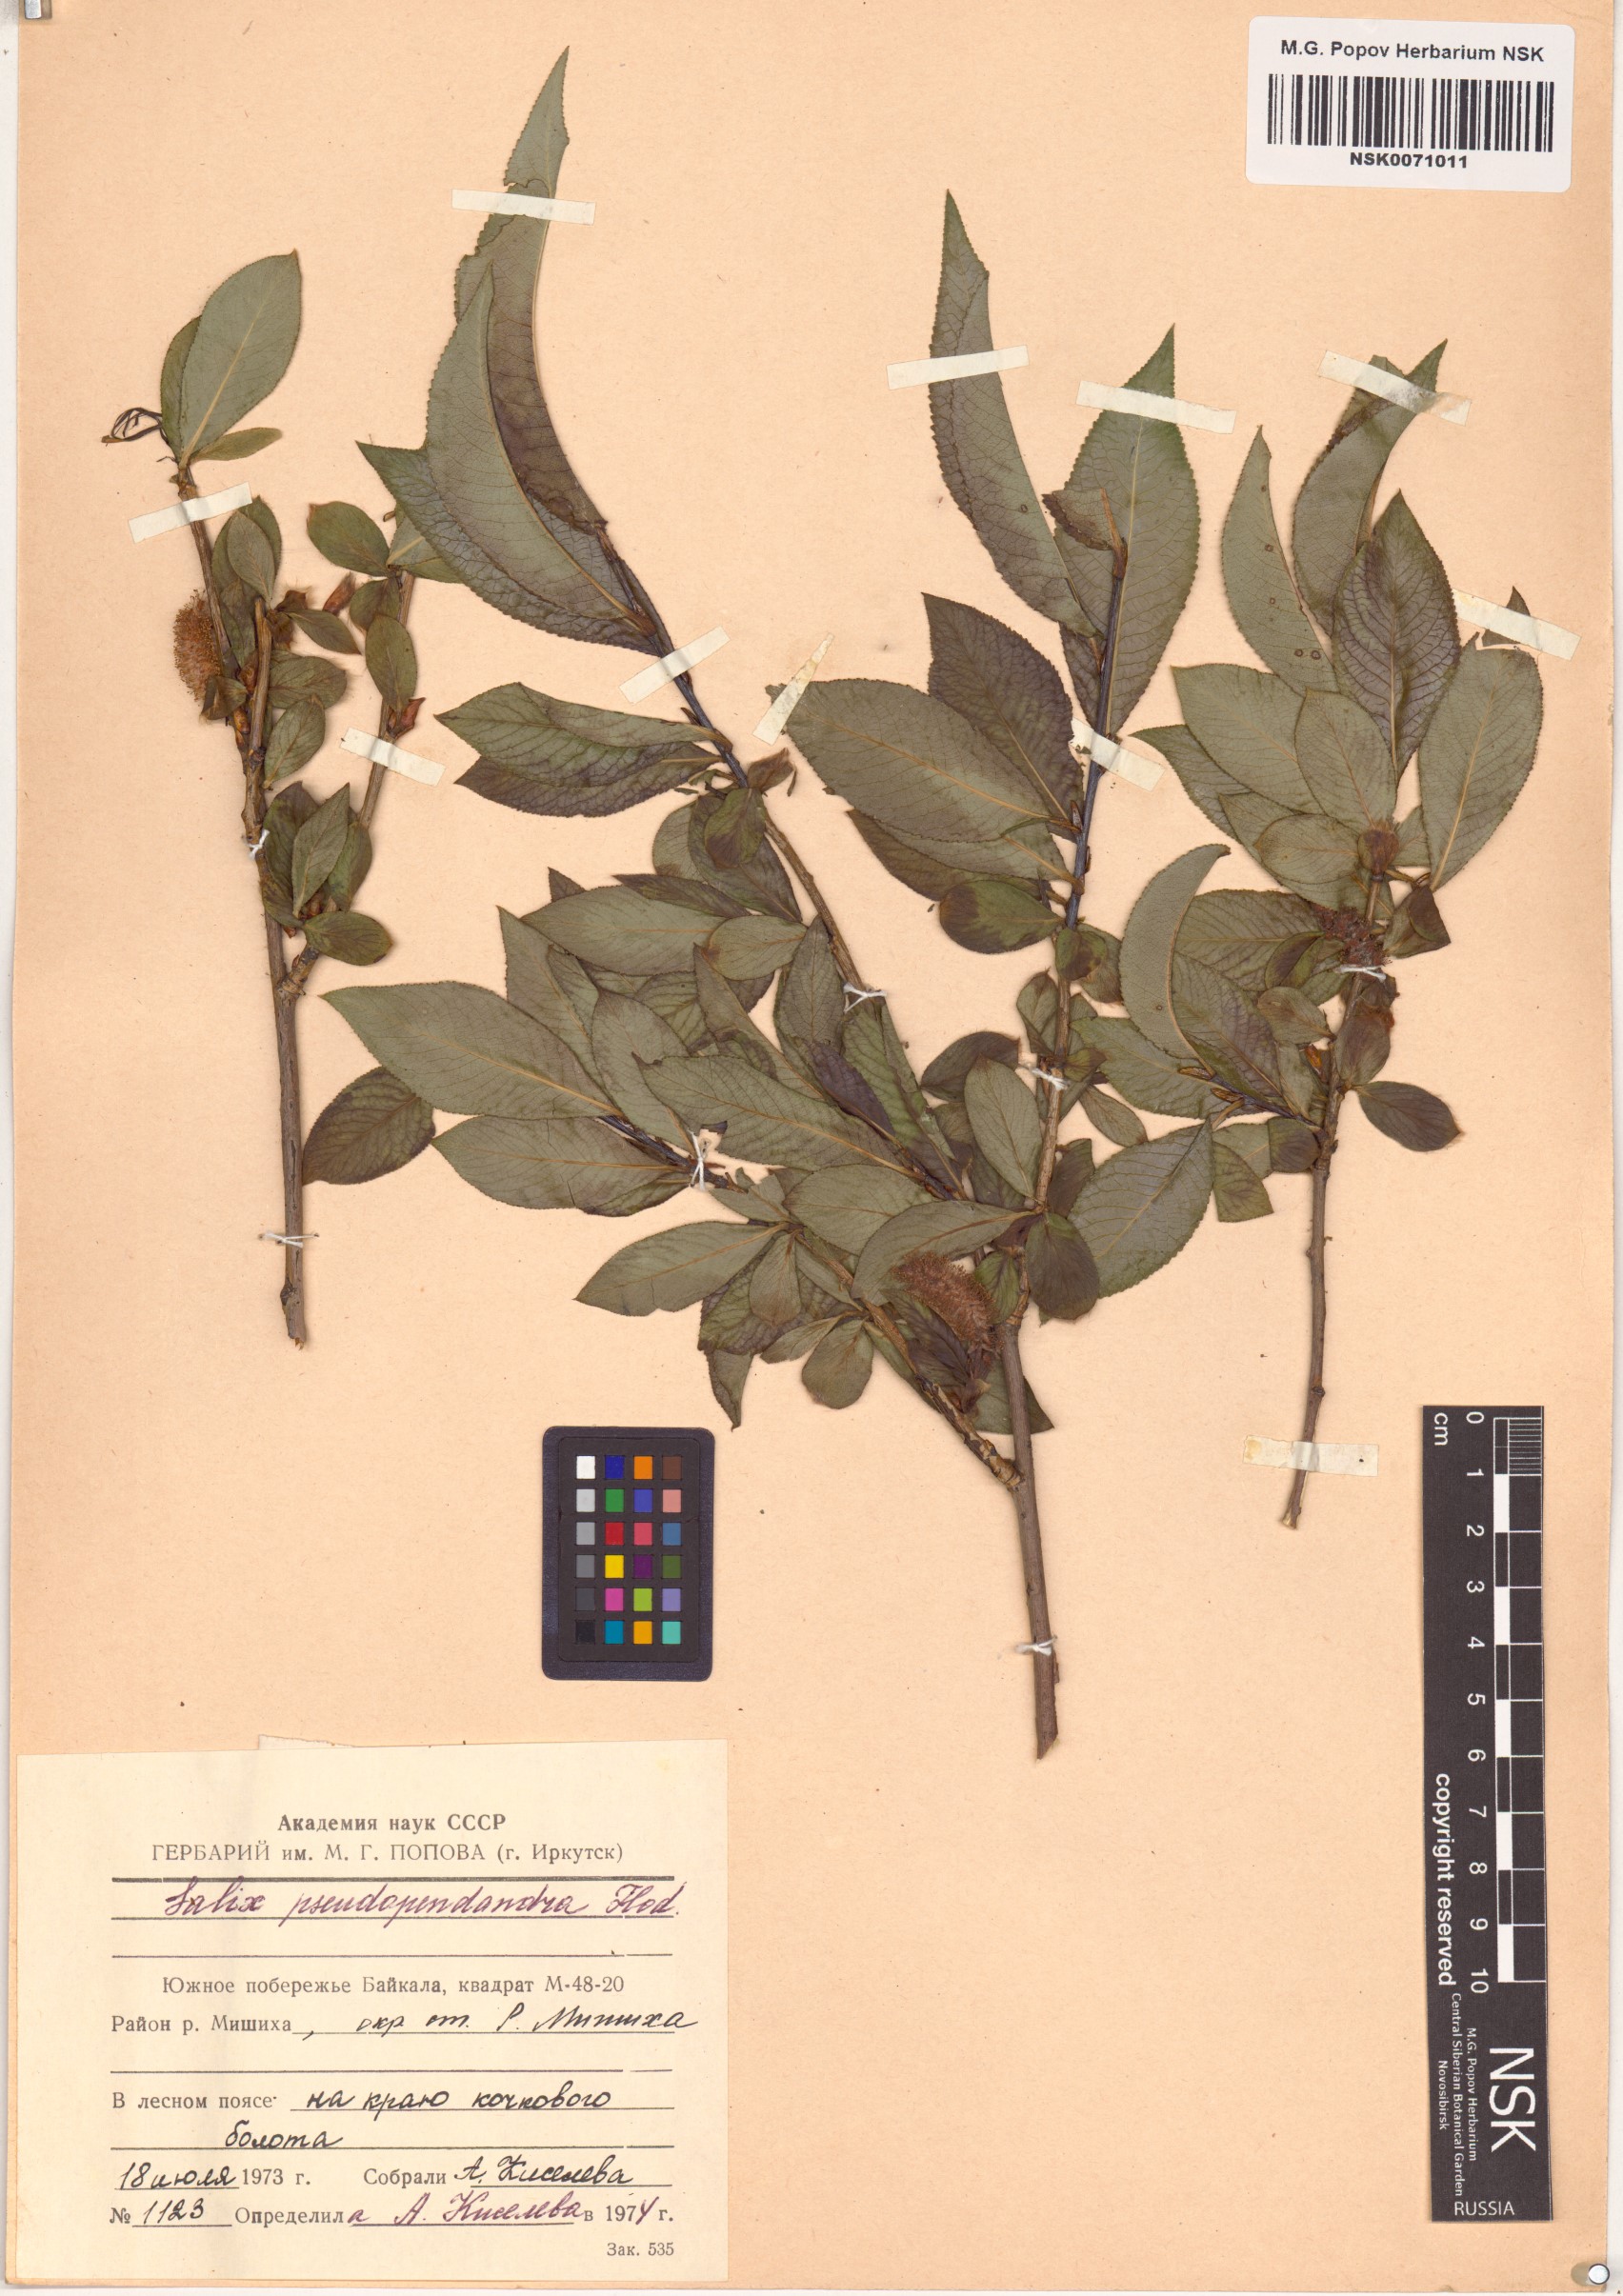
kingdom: Plantae
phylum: Tracheophyta
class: Magnoliopsida
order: Malpighiales
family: Salicaceae
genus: Salix
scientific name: Salix pseudopentandra
